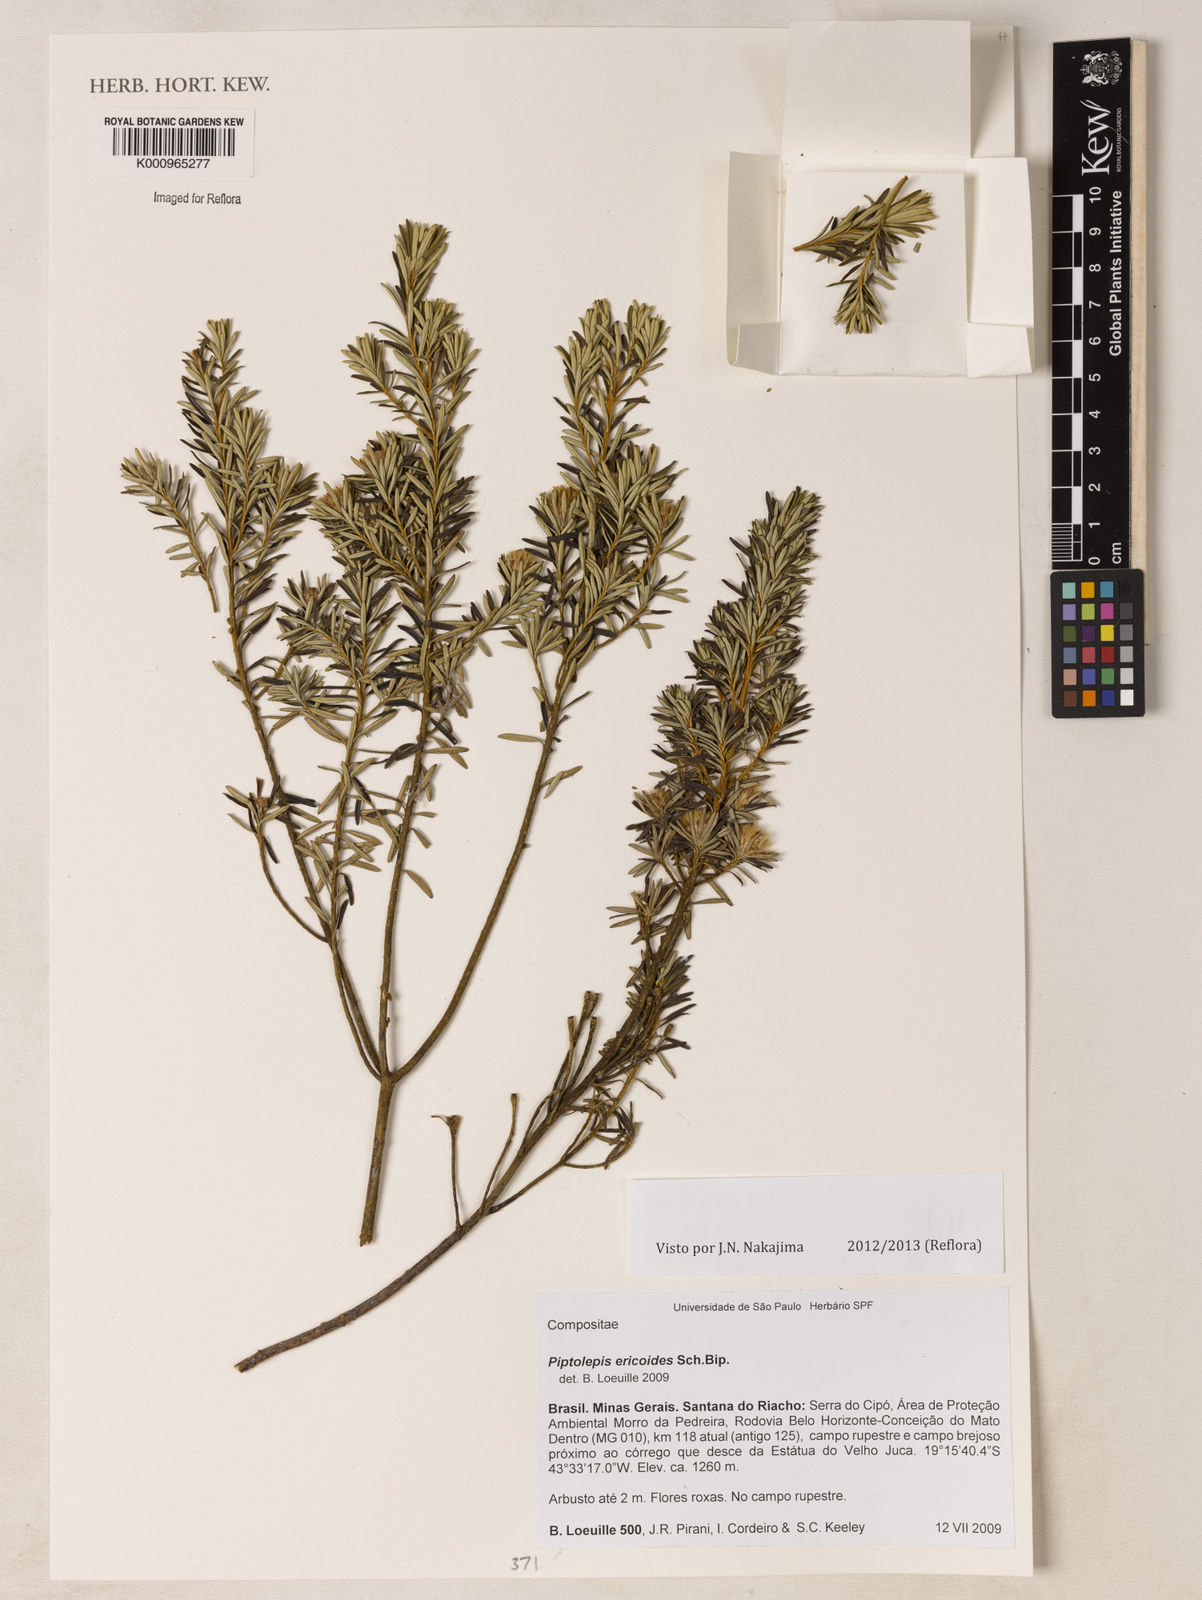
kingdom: Plantae
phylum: Tracheophyta
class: Magnoliopsida
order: Asterales
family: Asteraceae
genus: Piptolepis
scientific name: Piptolepis ericoides
